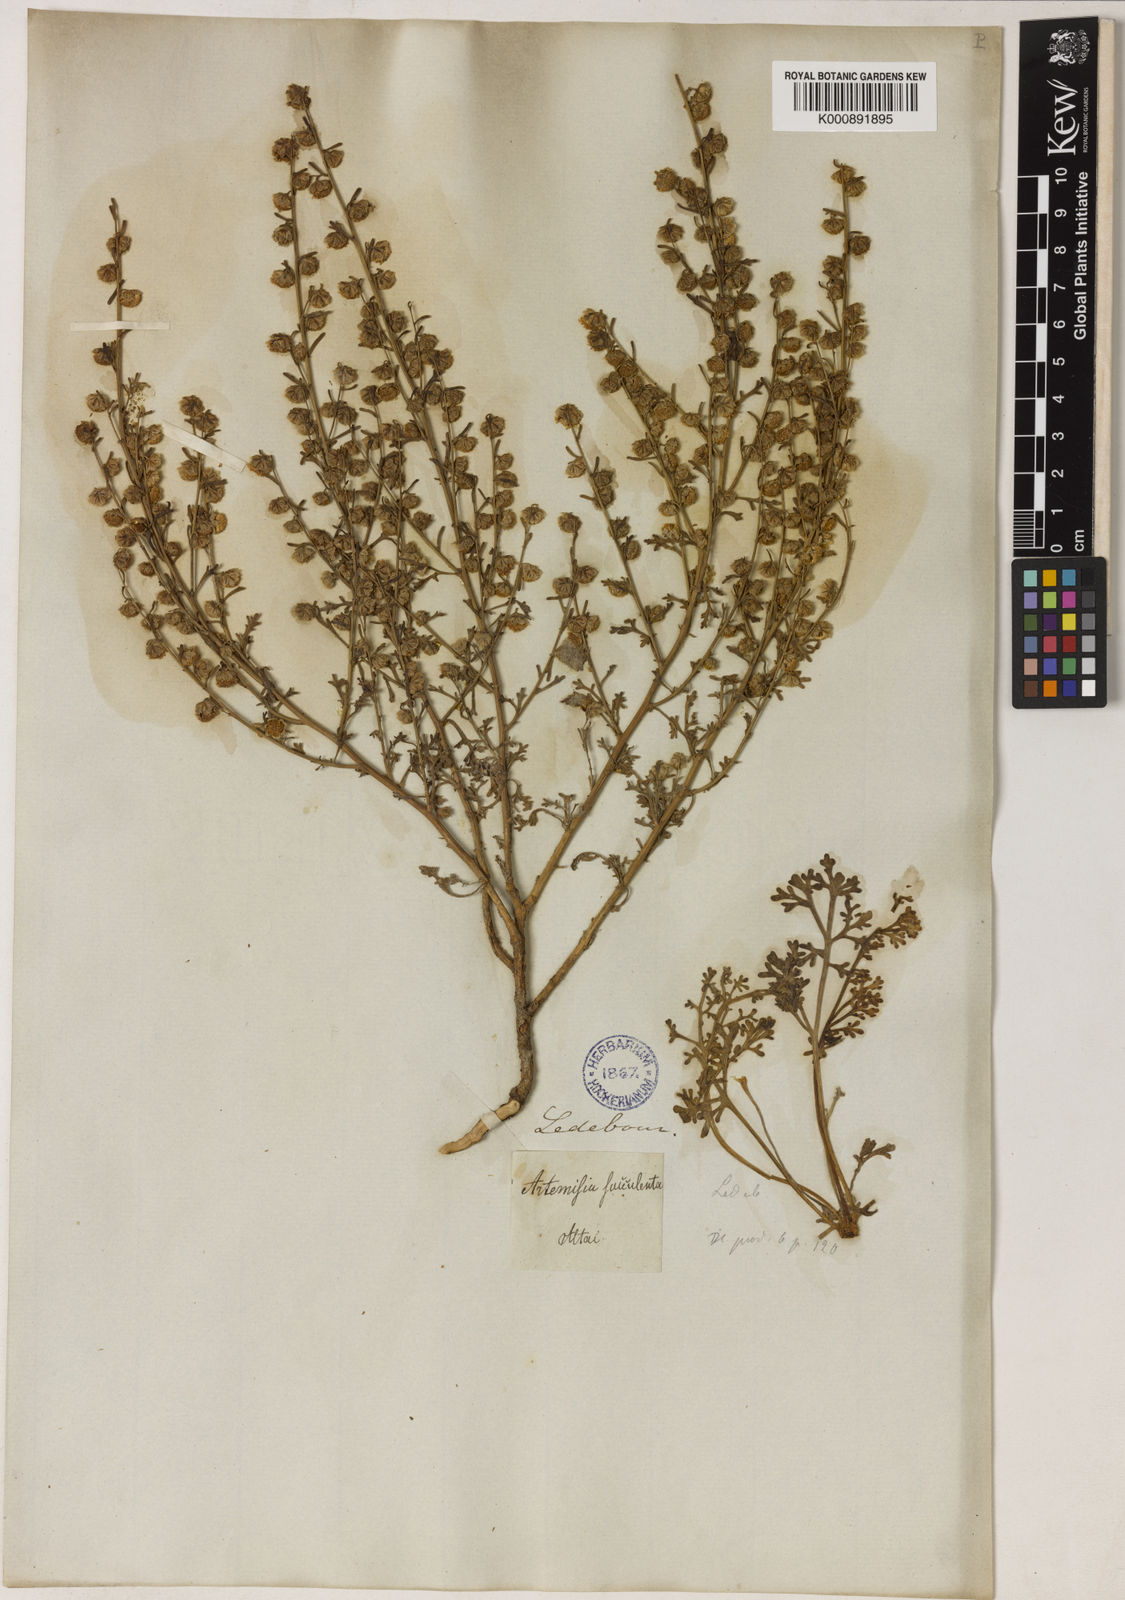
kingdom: Plantae
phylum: Tracheophyta
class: Magnoliopsida
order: Asterales
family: Asteraceae
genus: Artemisia
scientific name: Artemisia succulenta
